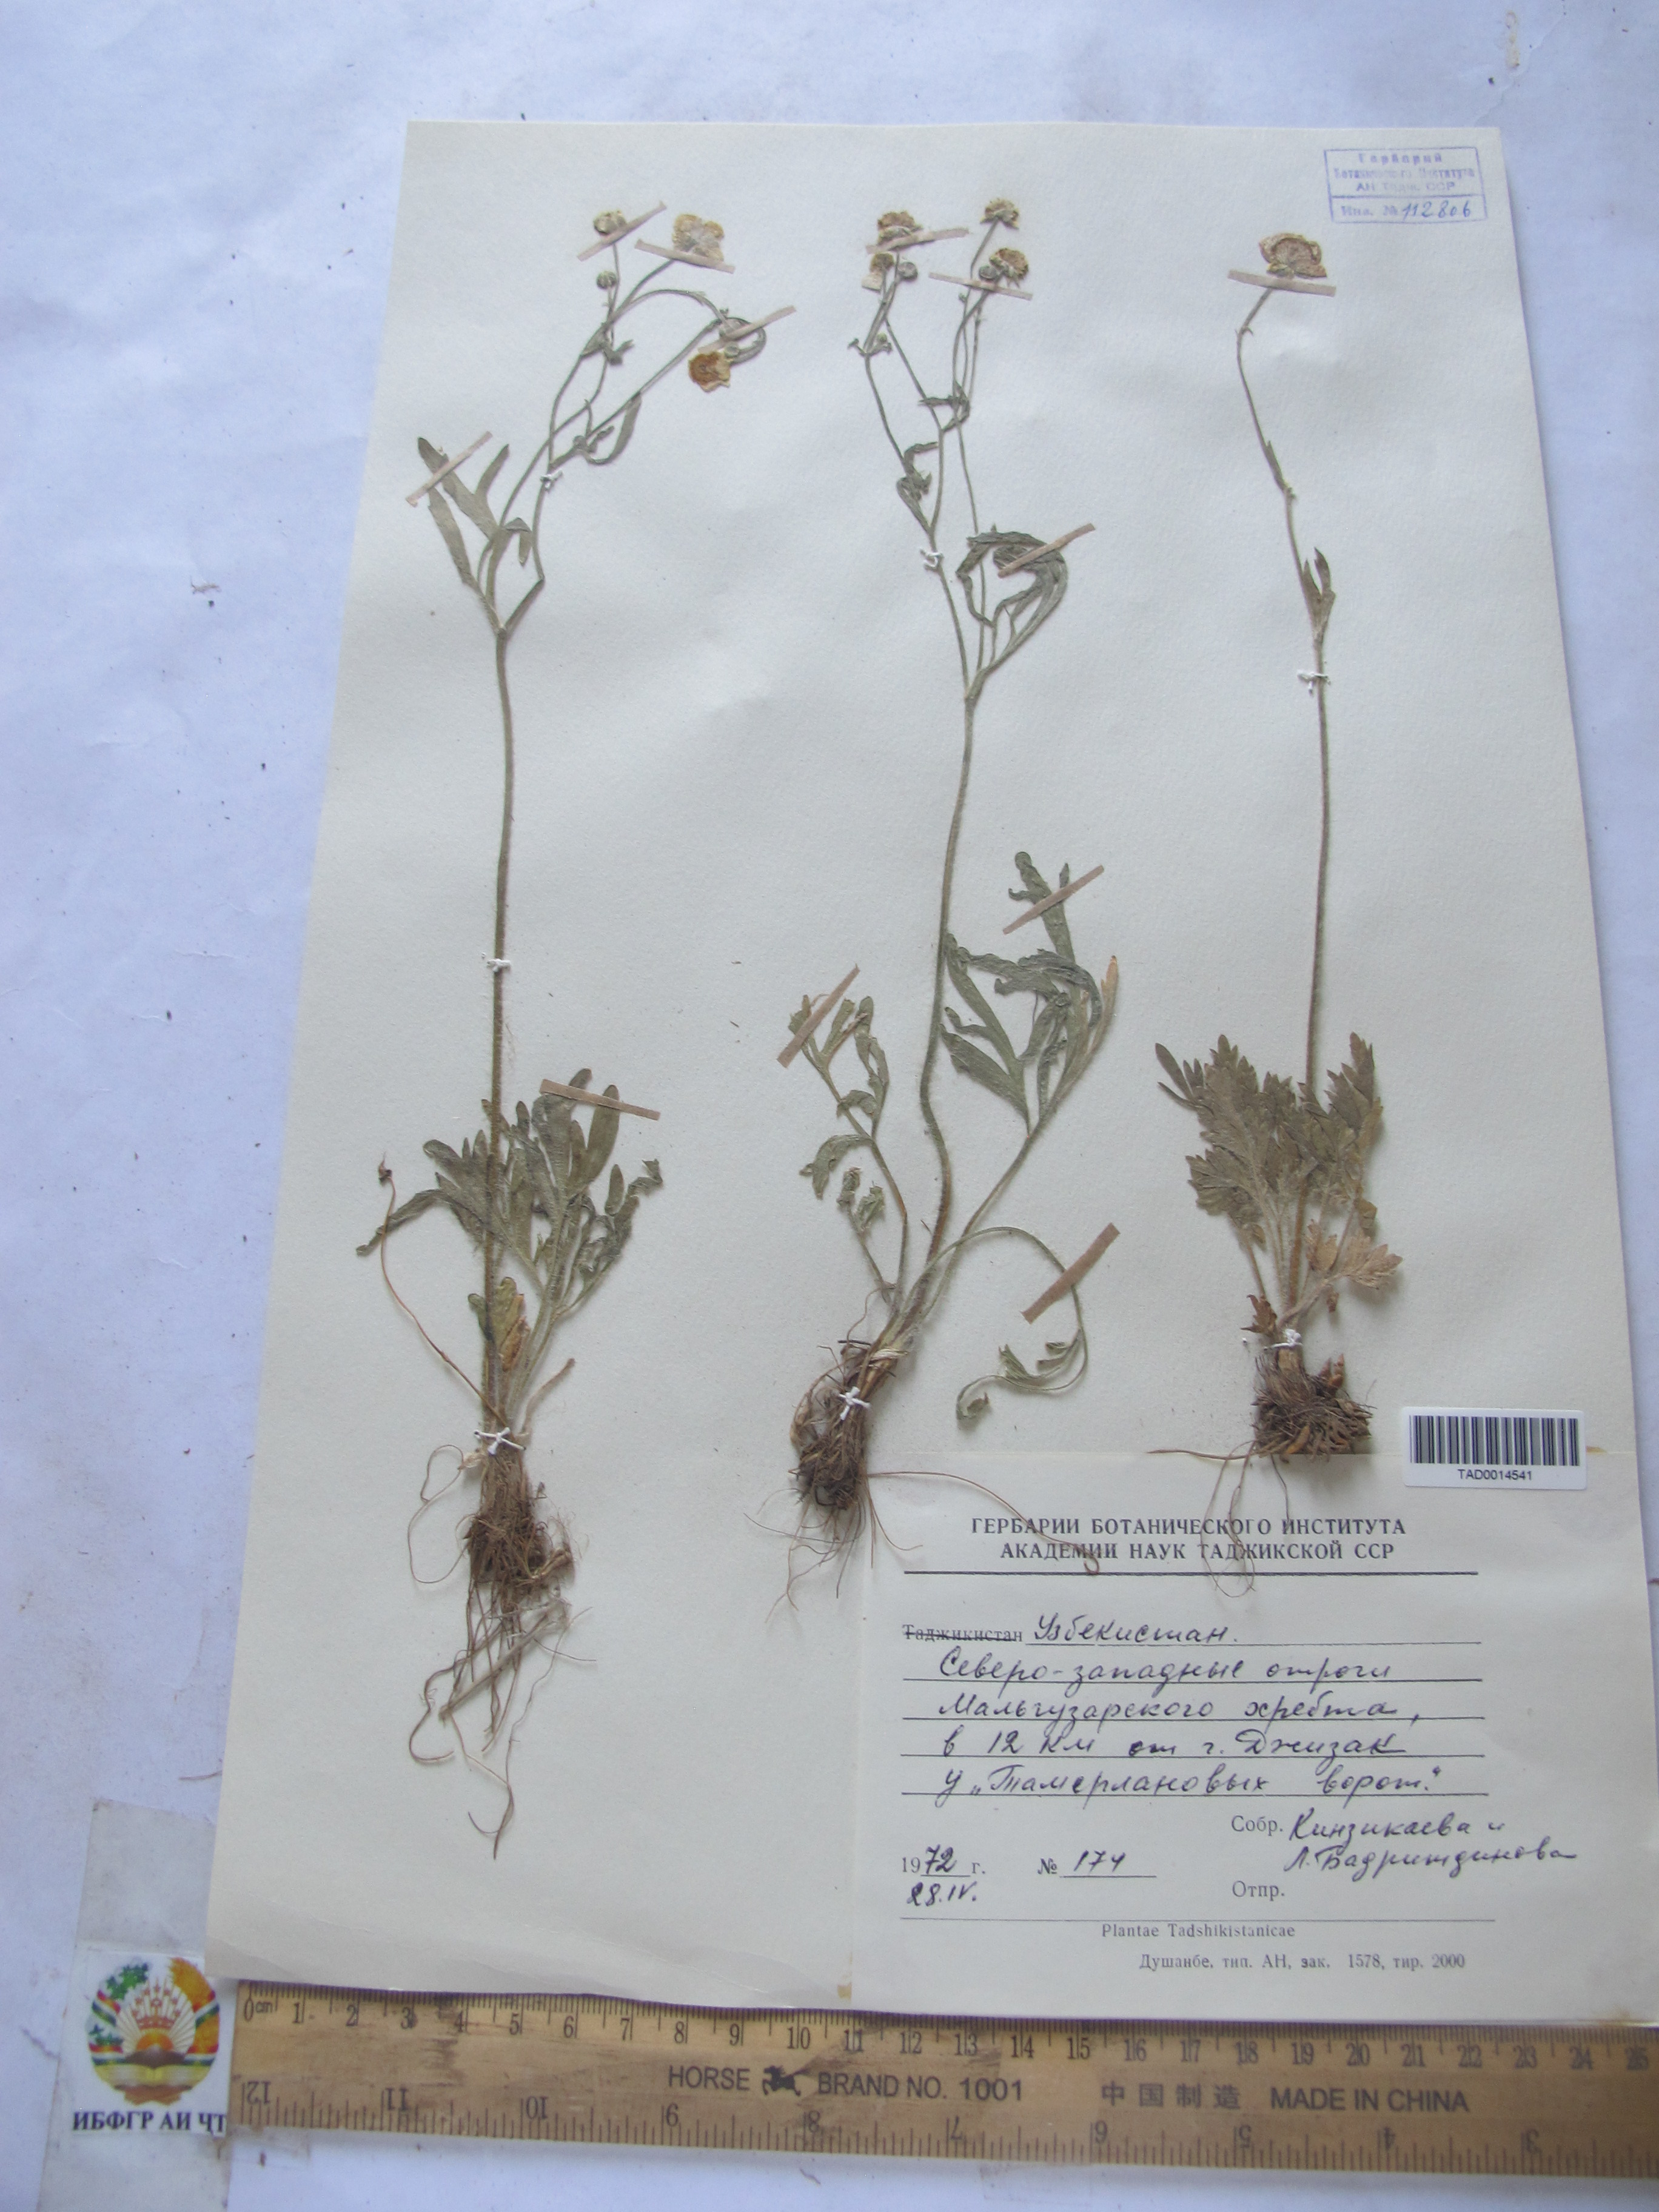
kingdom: Plantae
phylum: Tracheophyta
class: Magnoliopsida
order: Ranunculales
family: Ranunculaceae
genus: Ranunculus
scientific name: Ranunculus leptorrhynchus
